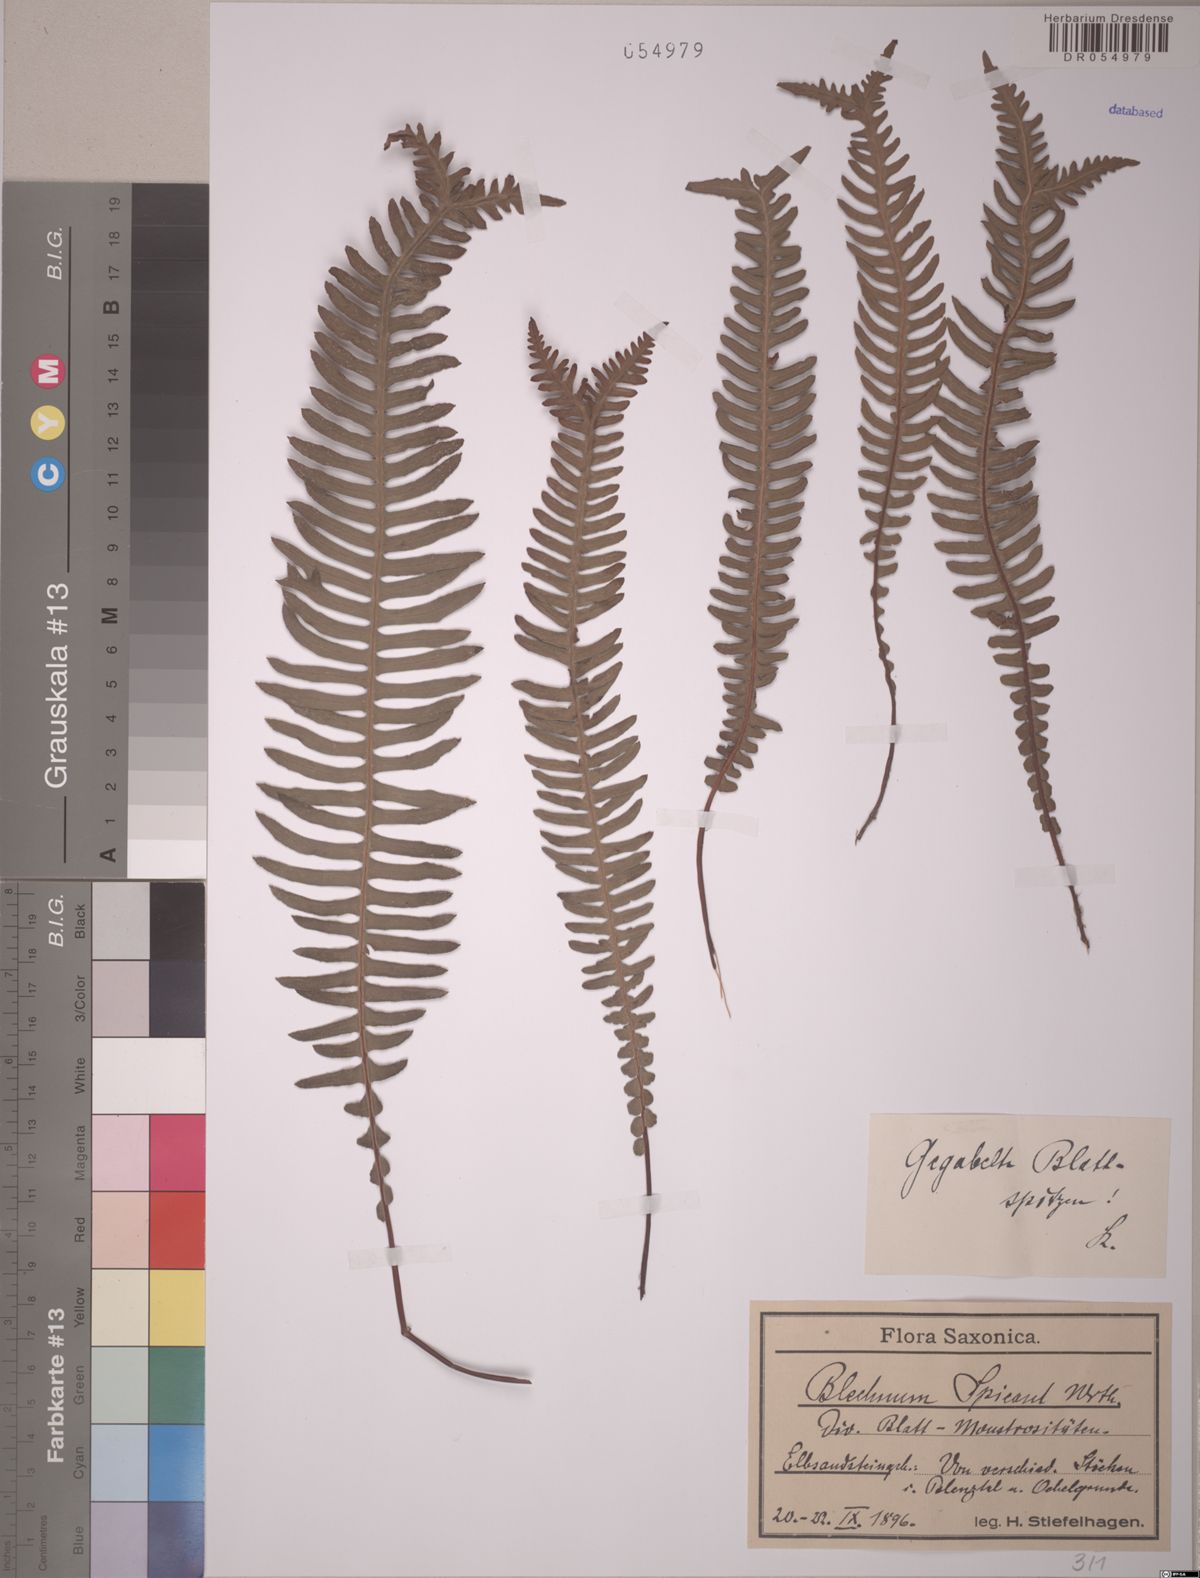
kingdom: Plantae
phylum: Tracheophyta
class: Polypodiopsida
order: Polypodiales
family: Blechnaceae
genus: Struthiopteris
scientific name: Struthiopteris spicant
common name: Deer fern
